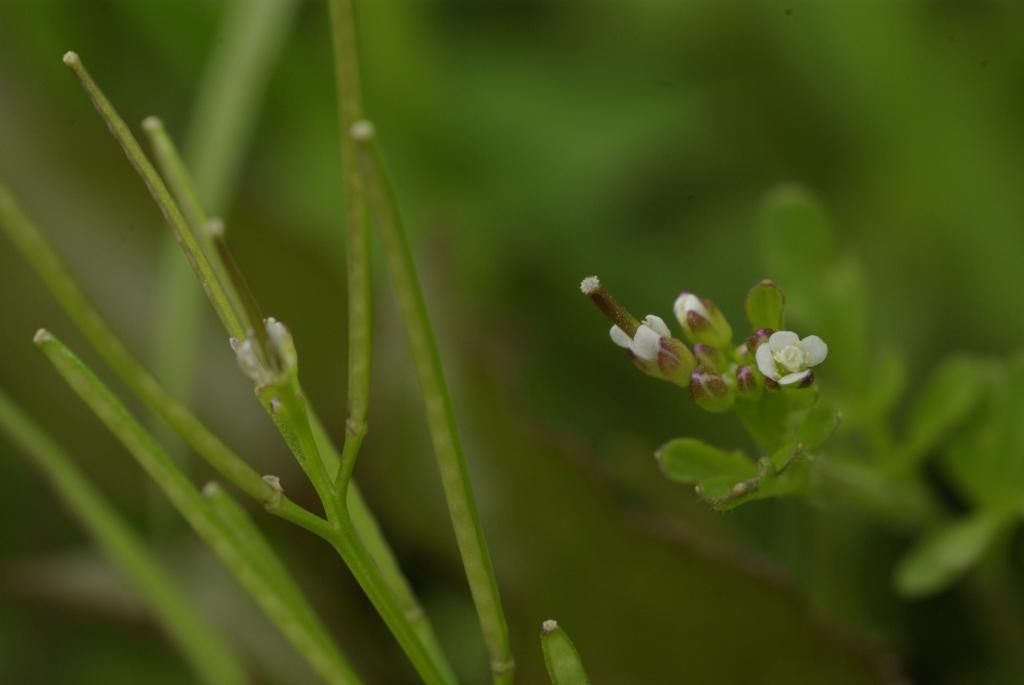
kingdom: Plantae
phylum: Tracheophyta
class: Magnoliopsida
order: Brassicales
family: Brassicaceae
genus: Cardamine
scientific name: Cardamine flexuosa
